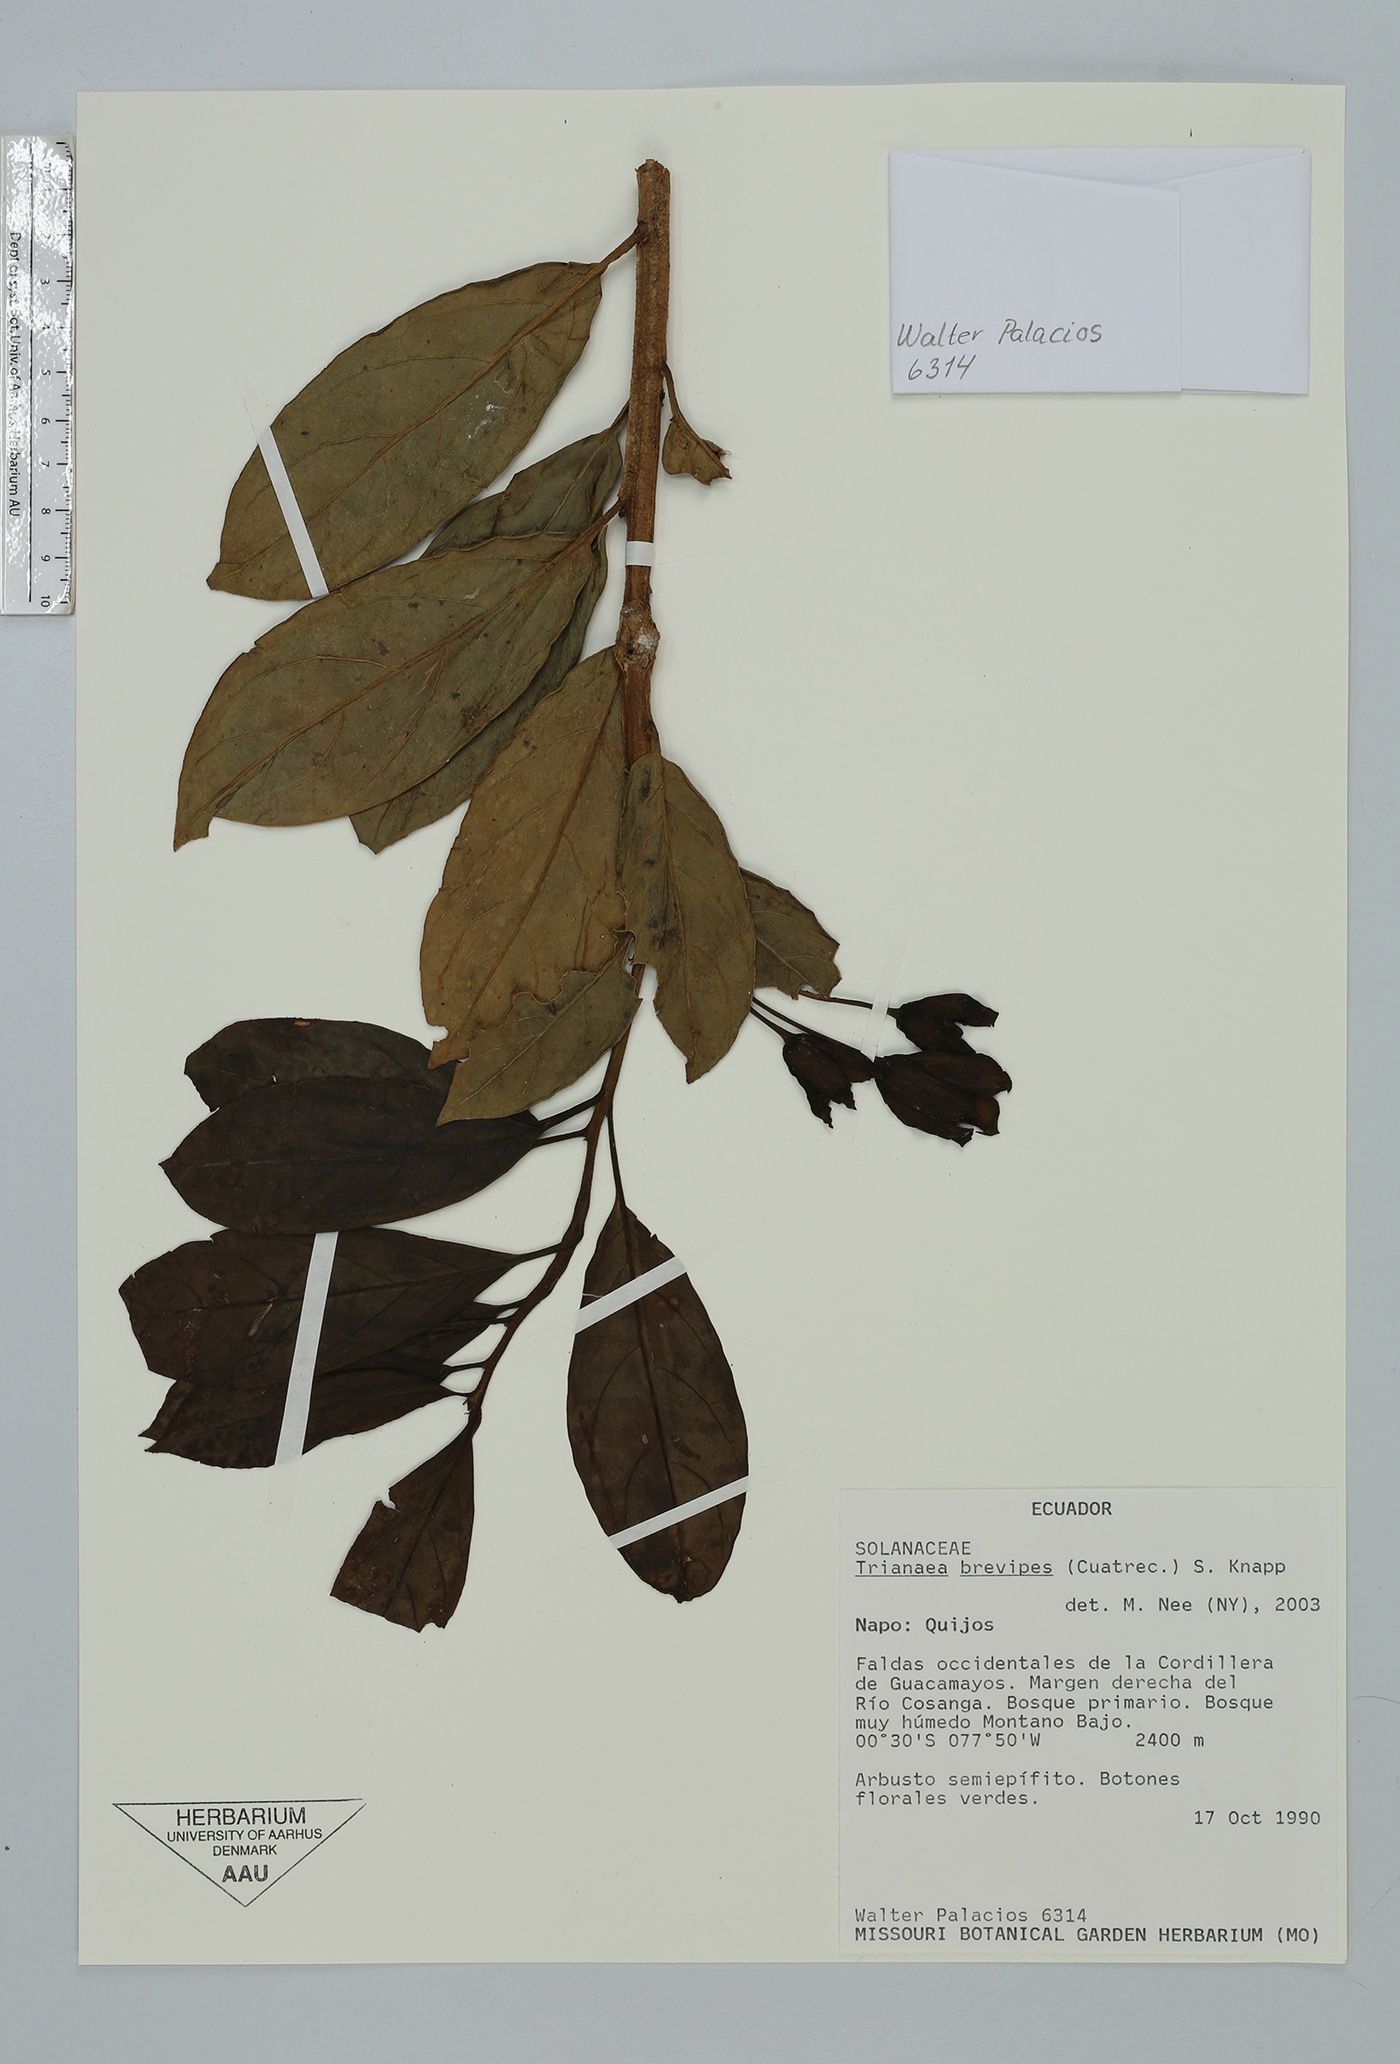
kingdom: Plantae
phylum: Tracheophyta
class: Magnoliopsida
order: Solanales
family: Solanaceae
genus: Trianaea
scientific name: Trianaea nobilis
